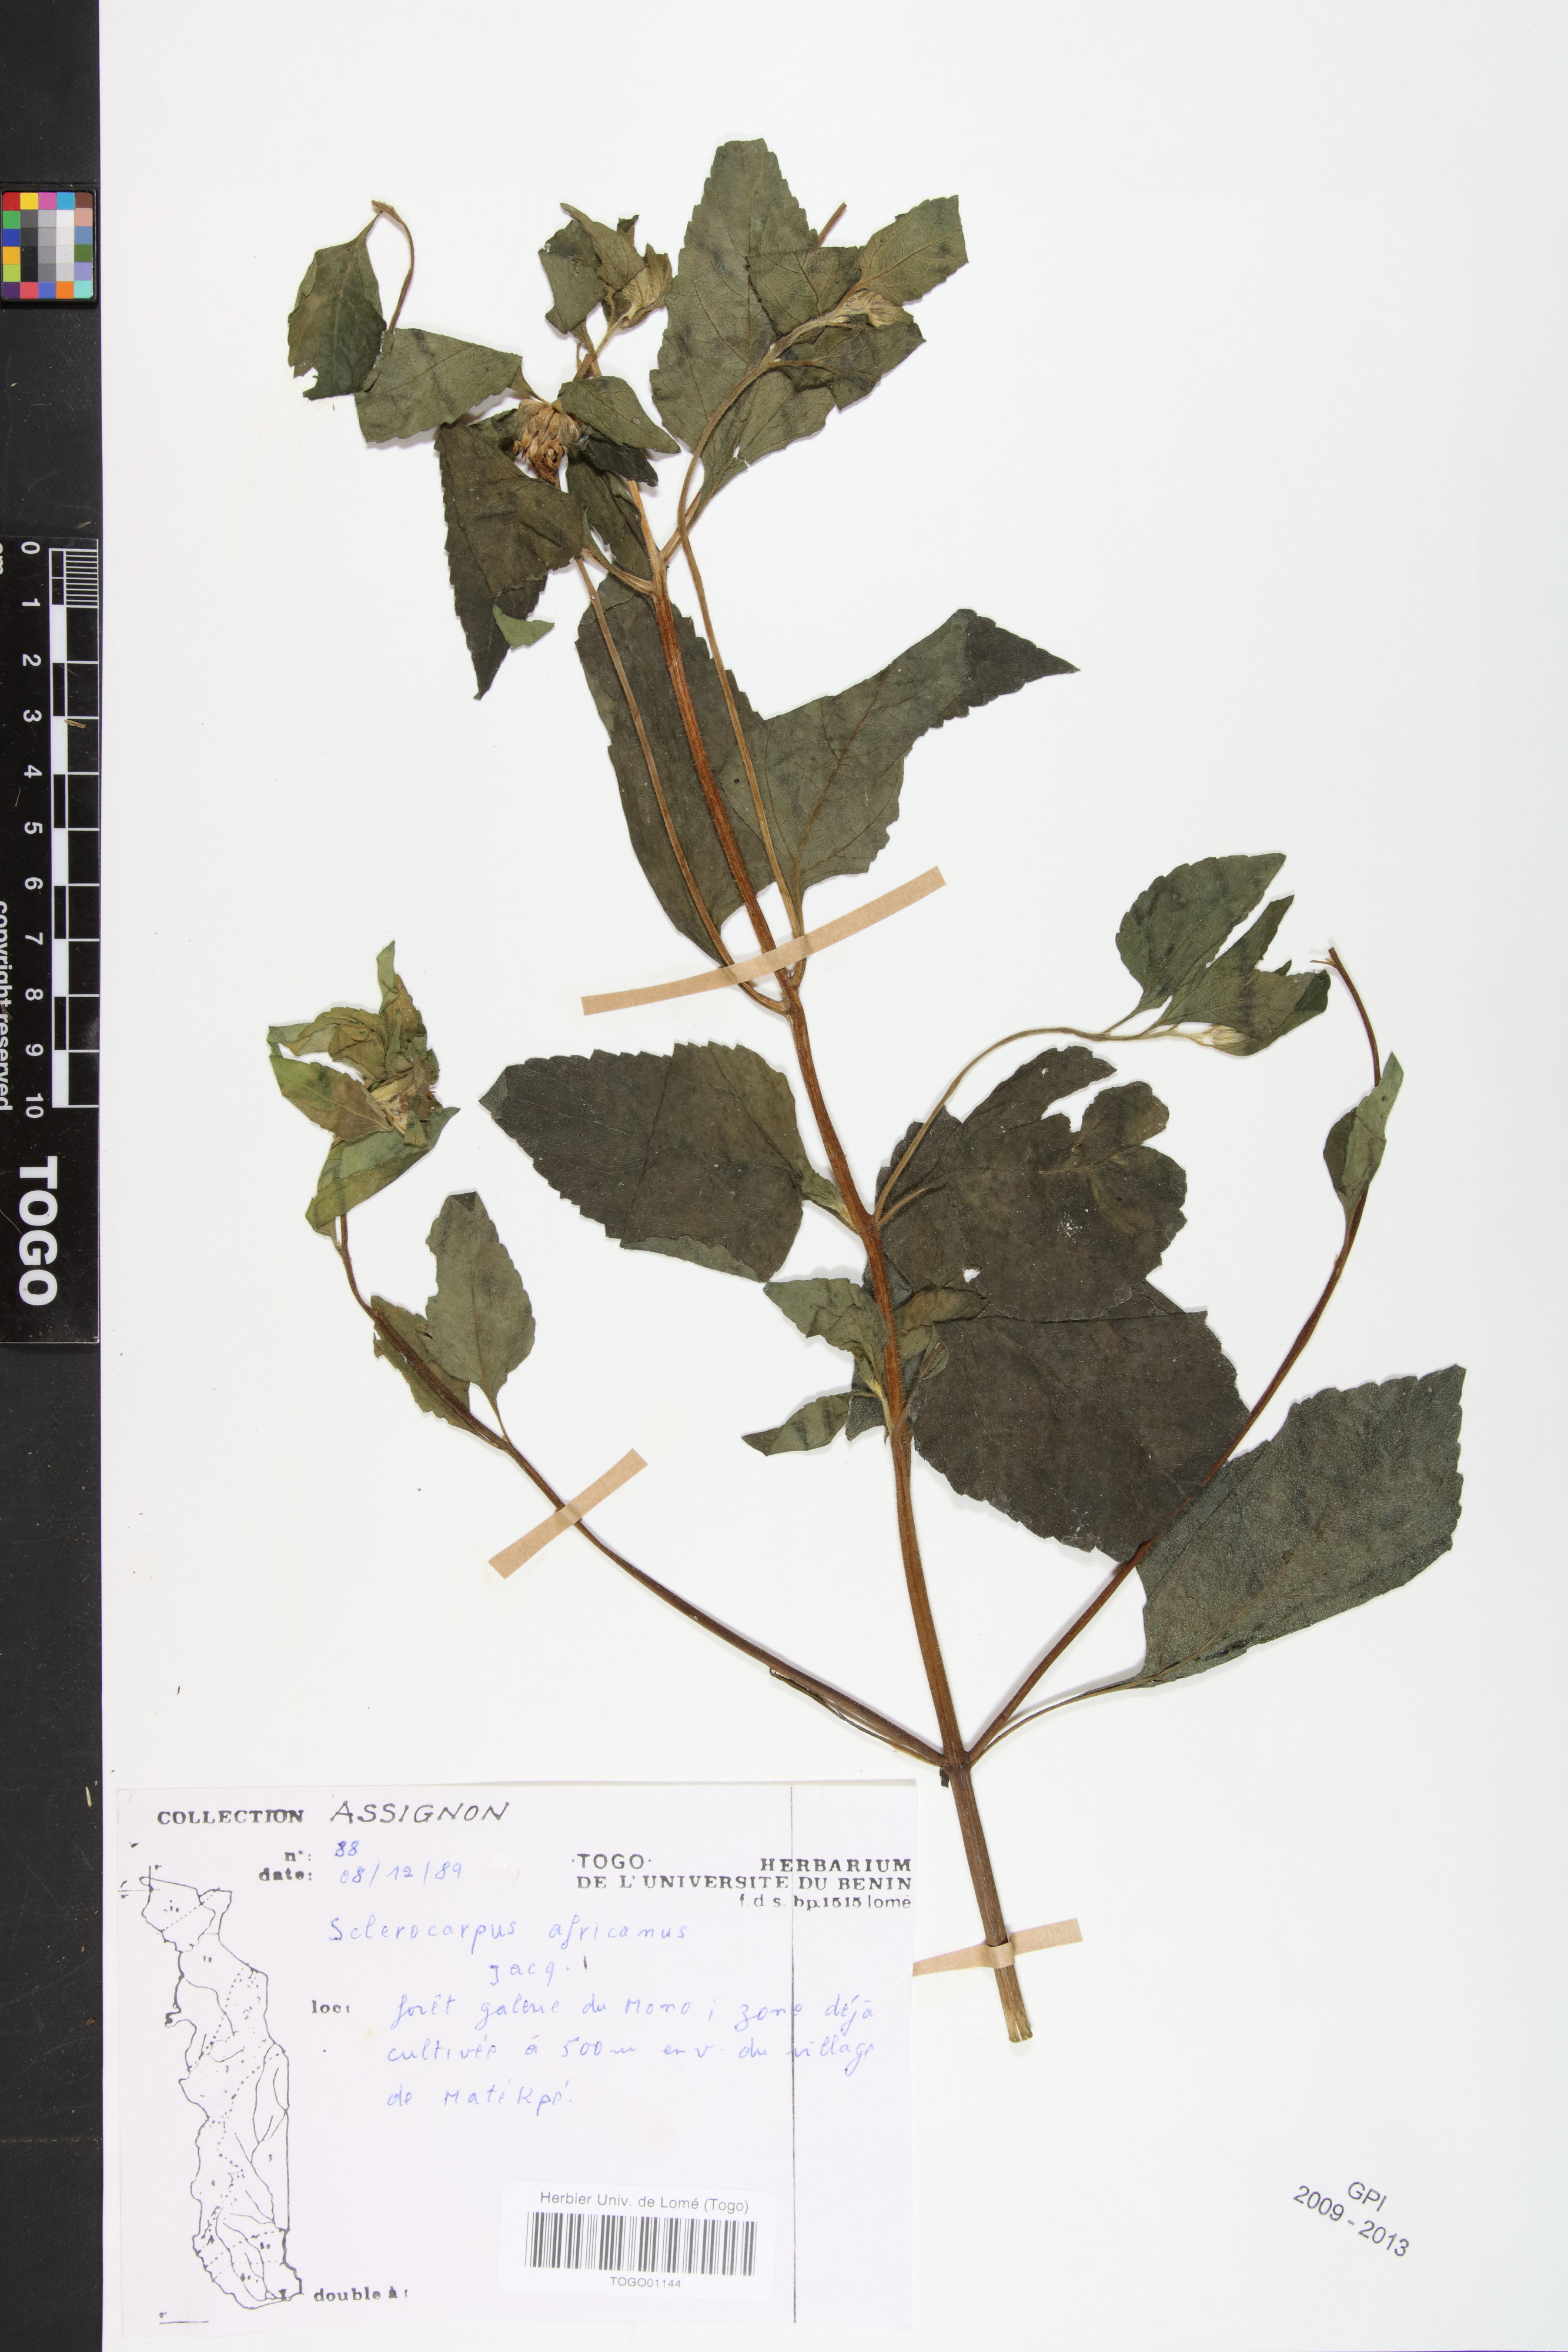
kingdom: Plantae
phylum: Tracheophyta
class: Magnoliopsida
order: Asterales
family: Asteraceae
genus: Sclerocarpus
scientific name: Sclerocarpus africanus
